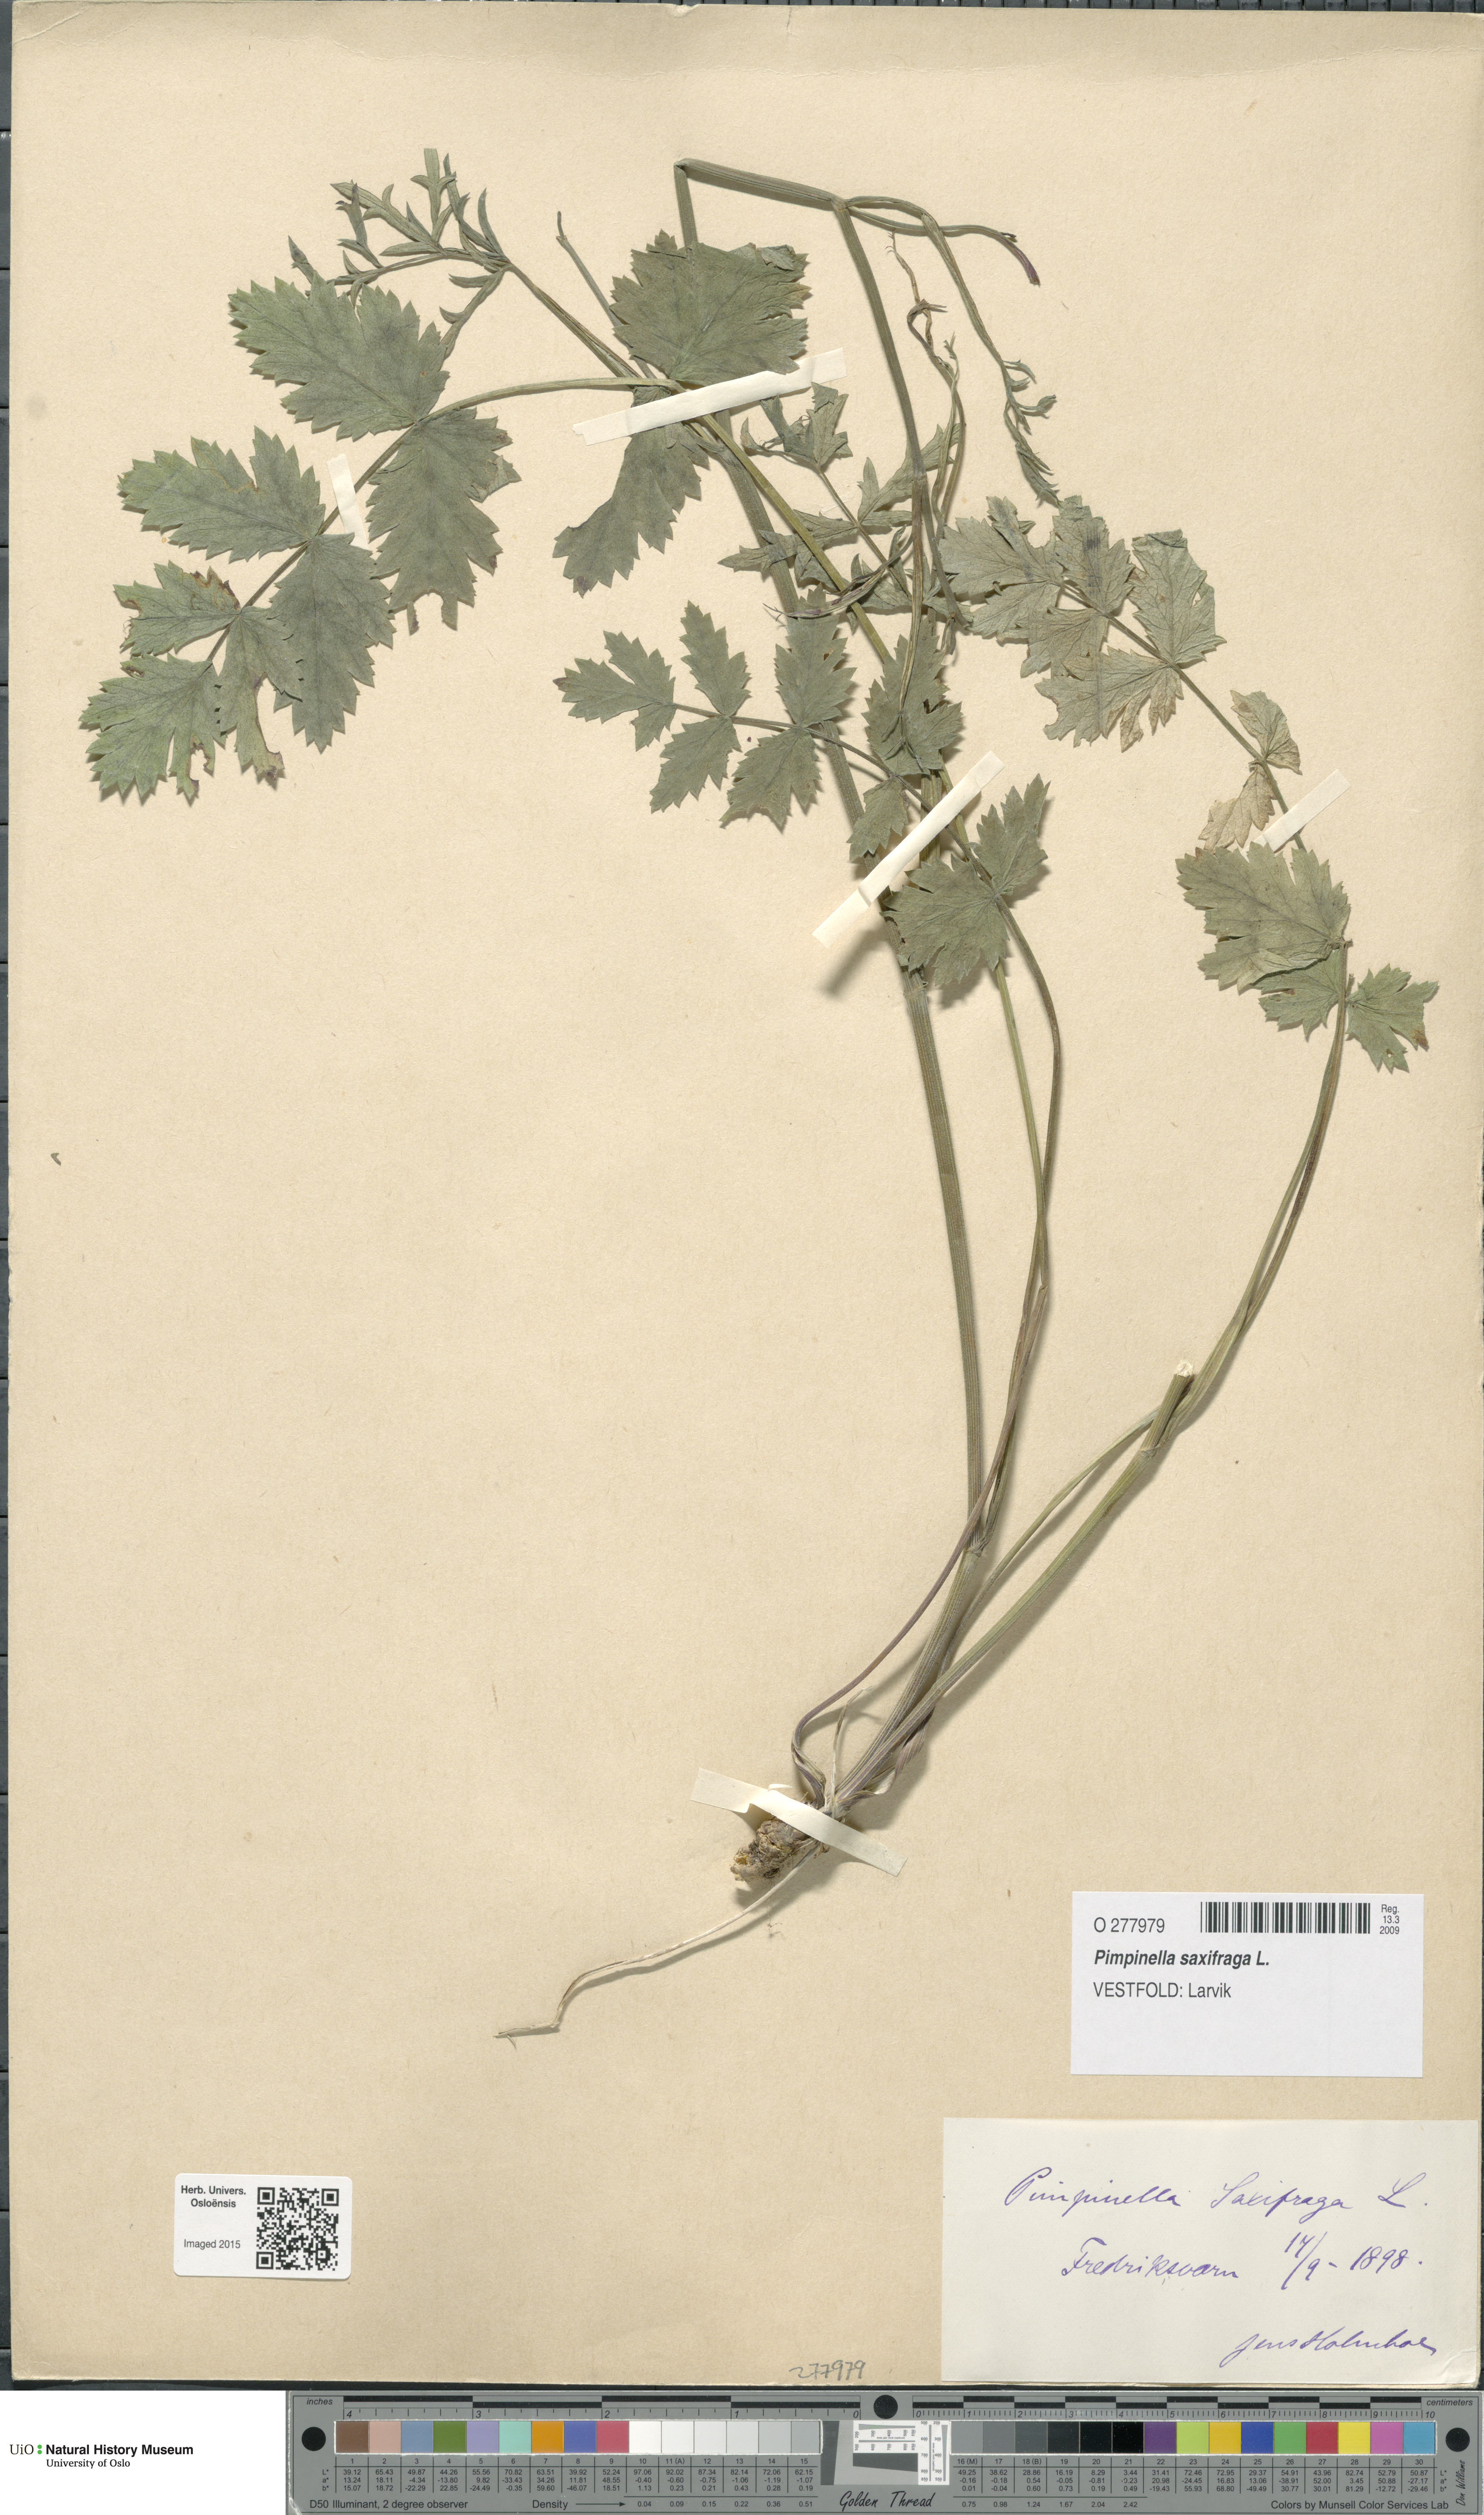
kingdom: Plantae
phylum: Tracheophyta
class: Magnoliopsida
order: Apiales
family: Apiaceae
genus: Pimpinella
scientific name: Pimpinella saxifraga
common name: Burnet-saxifrage
